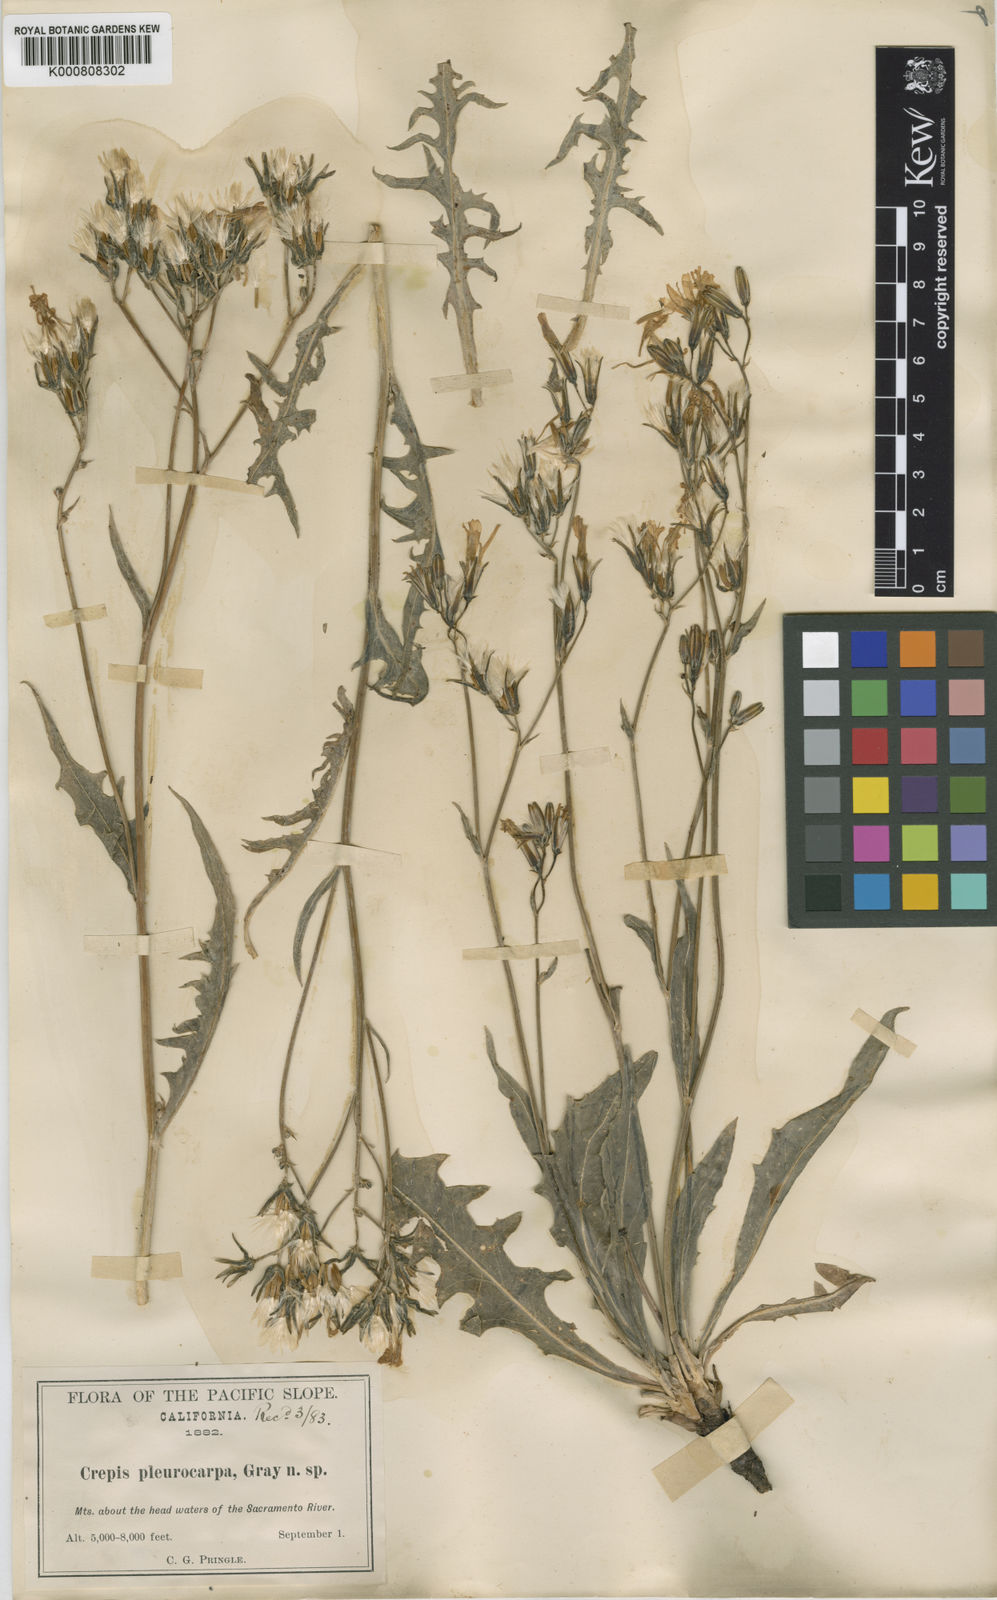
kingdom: Plantae
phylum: Tracheophyta
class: Magnoliopsida
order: Asterales
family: Asteraceae
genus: Crepis
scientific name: Crepis pleurocarpa
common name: Naked hawk's-beard
